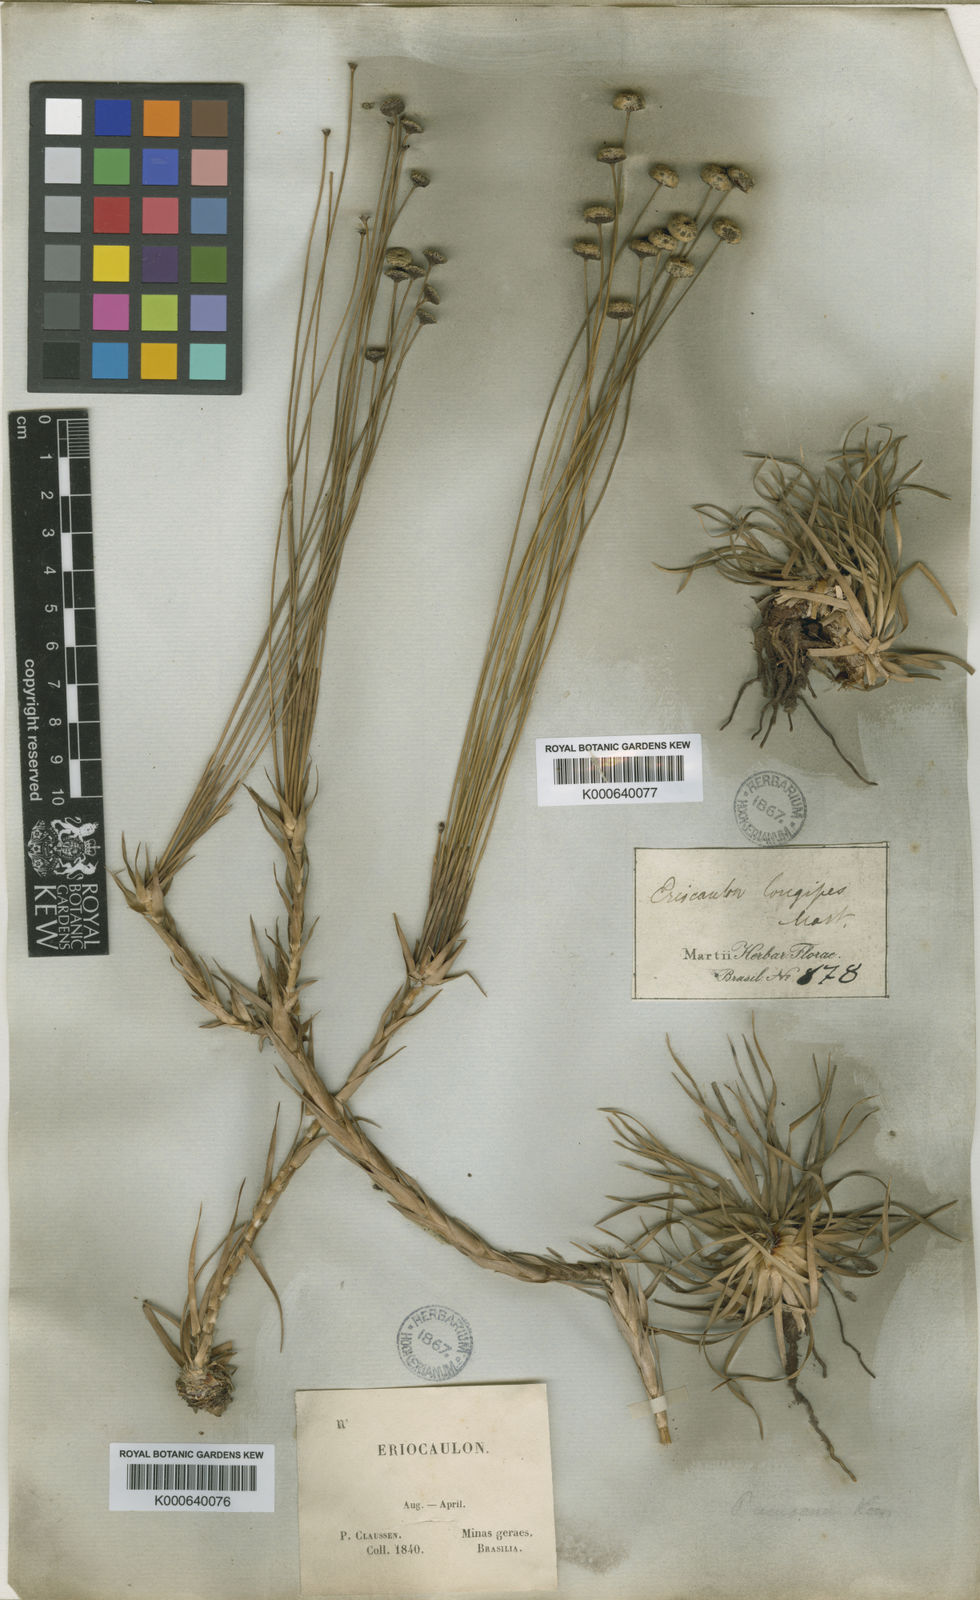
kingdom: Plantae
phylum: Tracheophyta
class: Liliopsida
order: Poales
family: Eriocaulaceae
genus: Paepalanthus
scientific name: Paepalanthus
